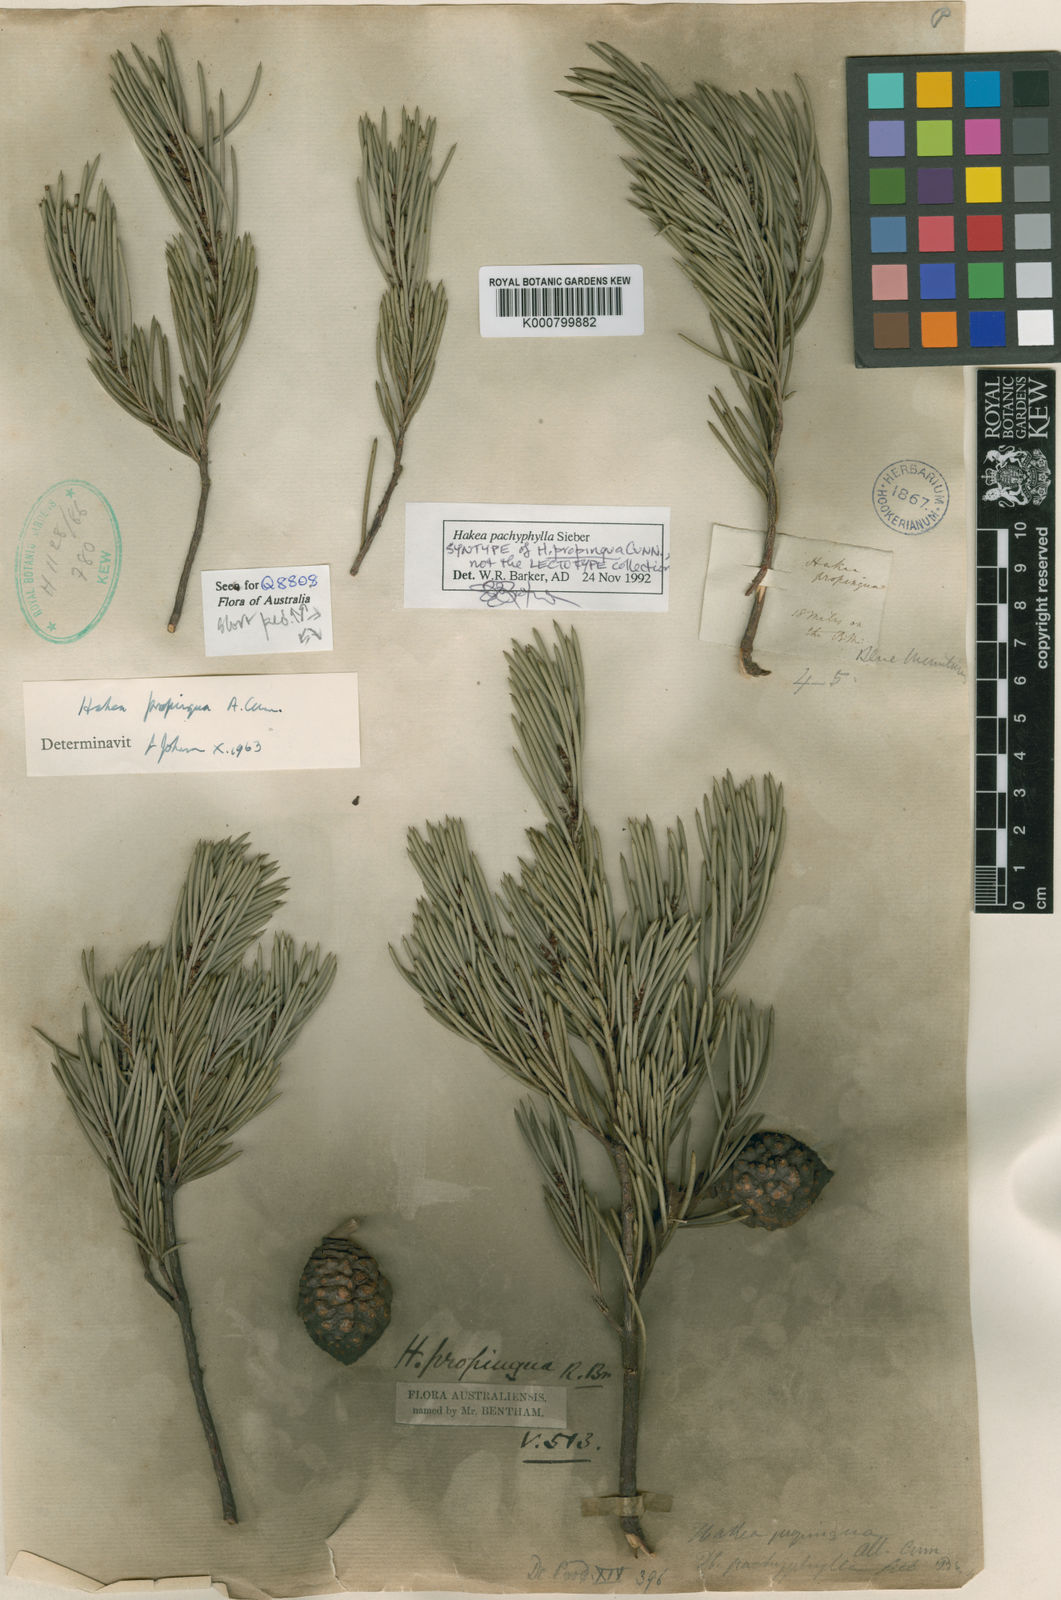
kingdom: Plantae
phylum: Tracheophyta
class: Magnoliopsida
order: Proteales
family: Proteaceae
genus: Hakea
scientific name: Hakea propinqua
